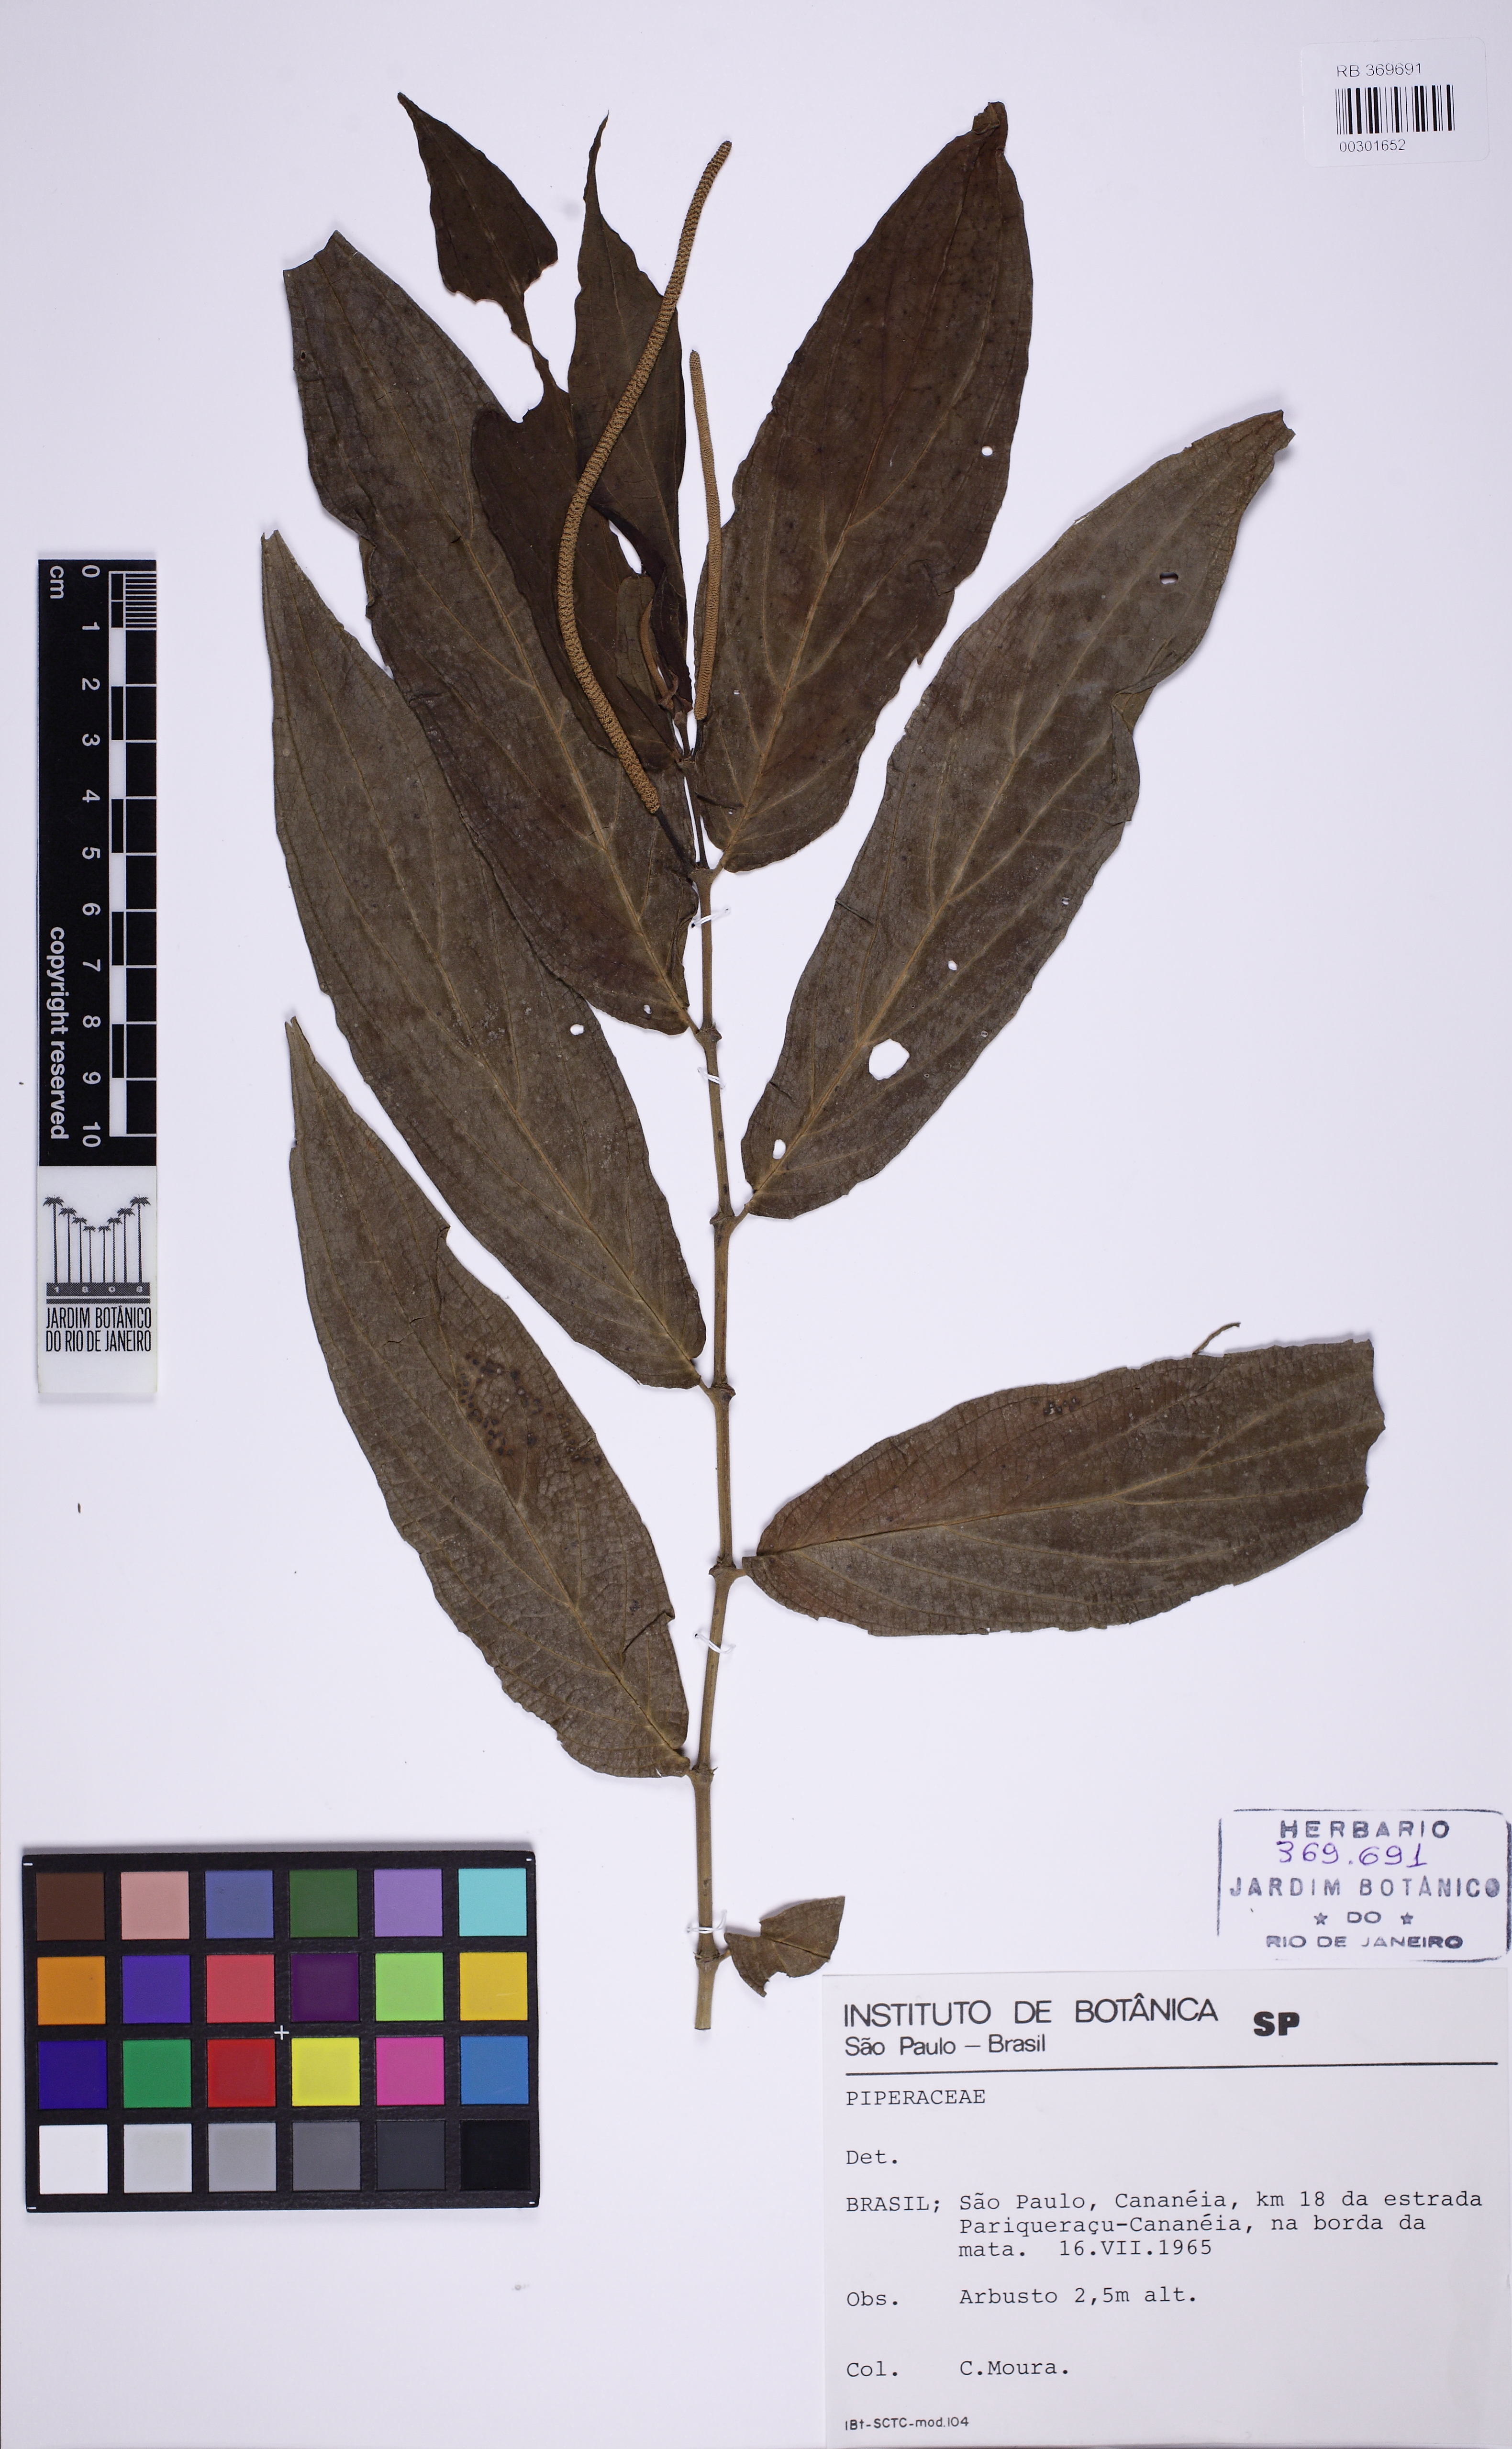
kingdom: Plantae
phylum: Tracheophyta
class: Magnoliopsida
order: Piperales
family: Piperaceae
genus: Piper
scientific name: Piper macedoi
